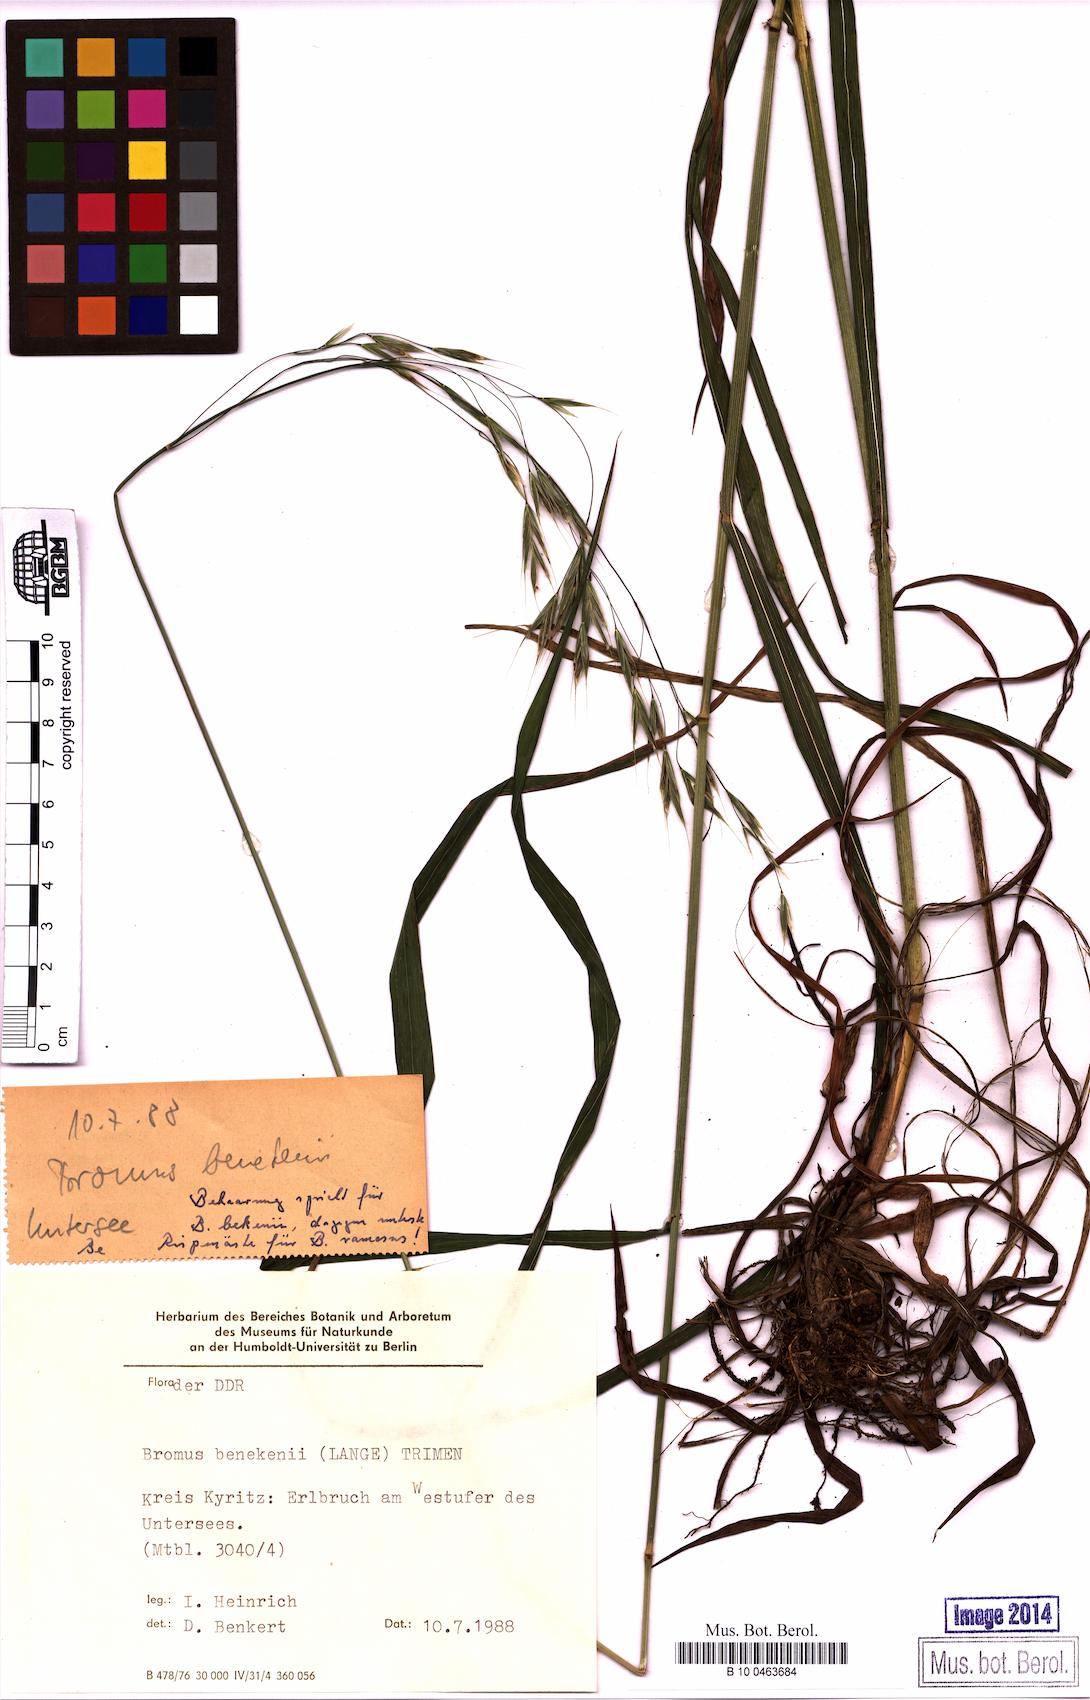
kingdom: Plantae
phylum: Tracheophyta
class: Liliopsida
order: Poales
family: Poaceae
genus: Bromus
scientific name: Bromus benekenii
